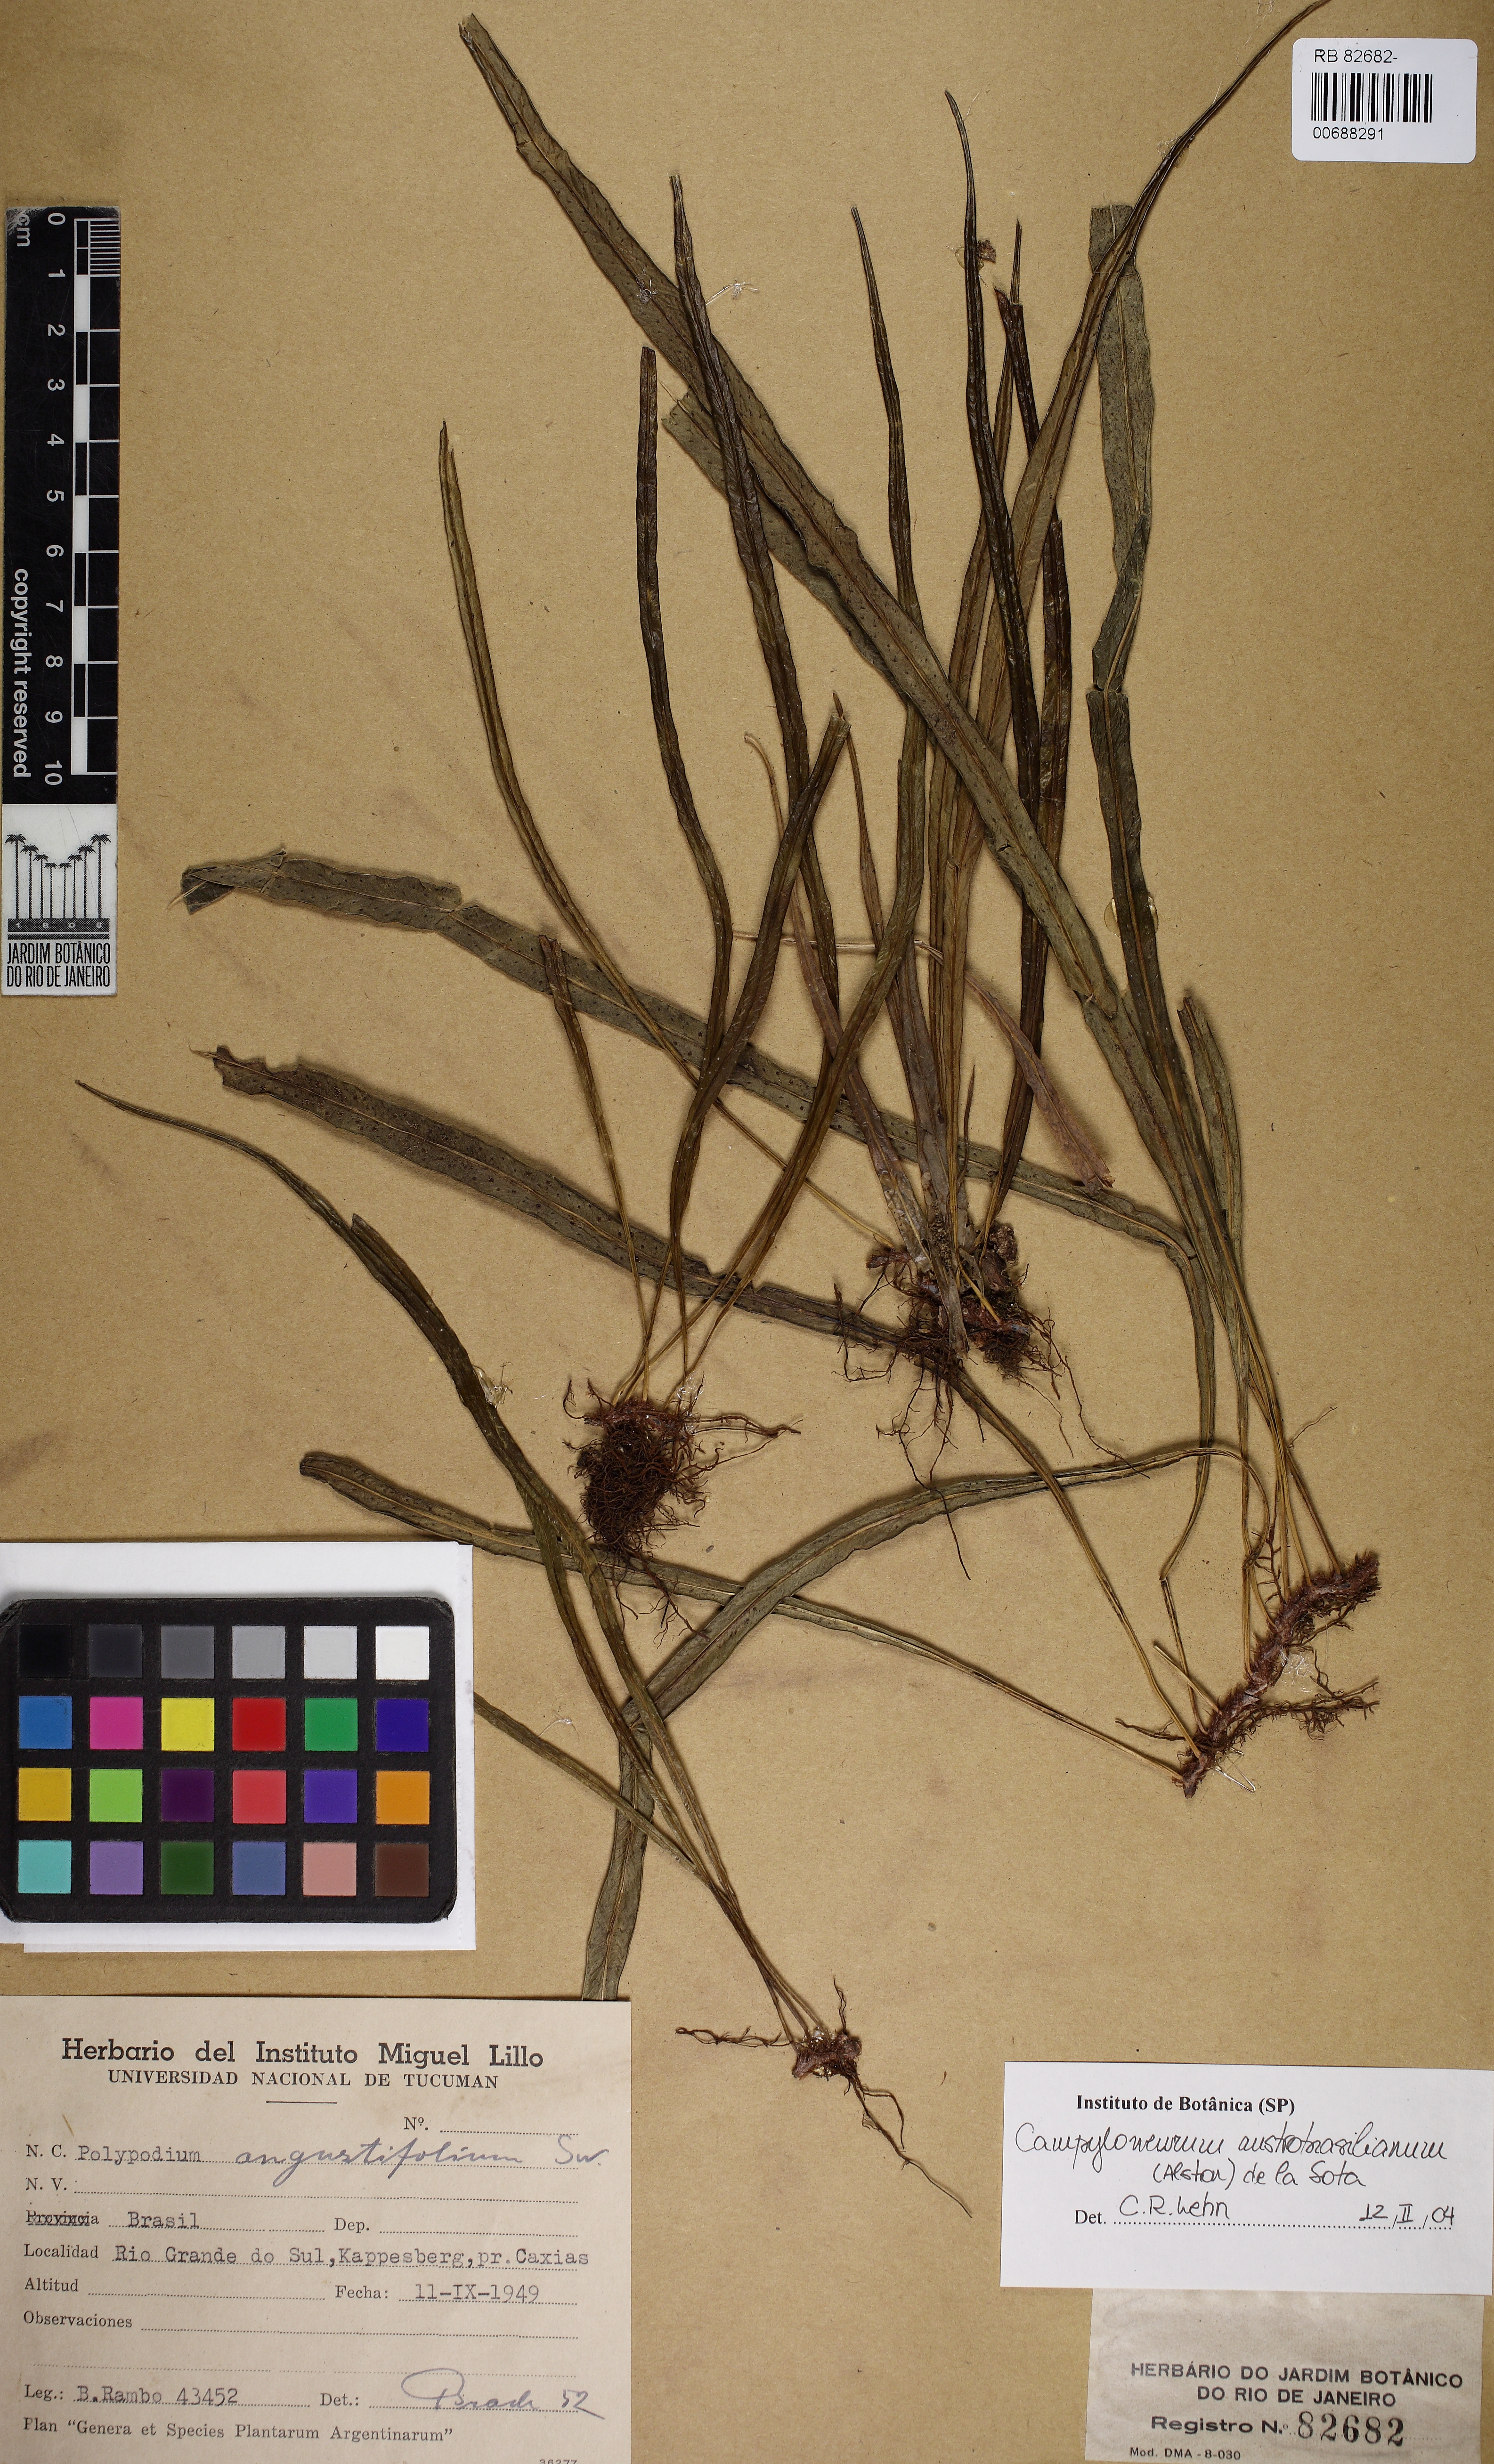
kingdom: Plantae
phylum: Tracheophyta
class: Polypodiopsida
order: Polypodiales
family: Polypodiaceae
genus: Campyloneurum
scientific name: Campyloneurum austrobrasilianum
